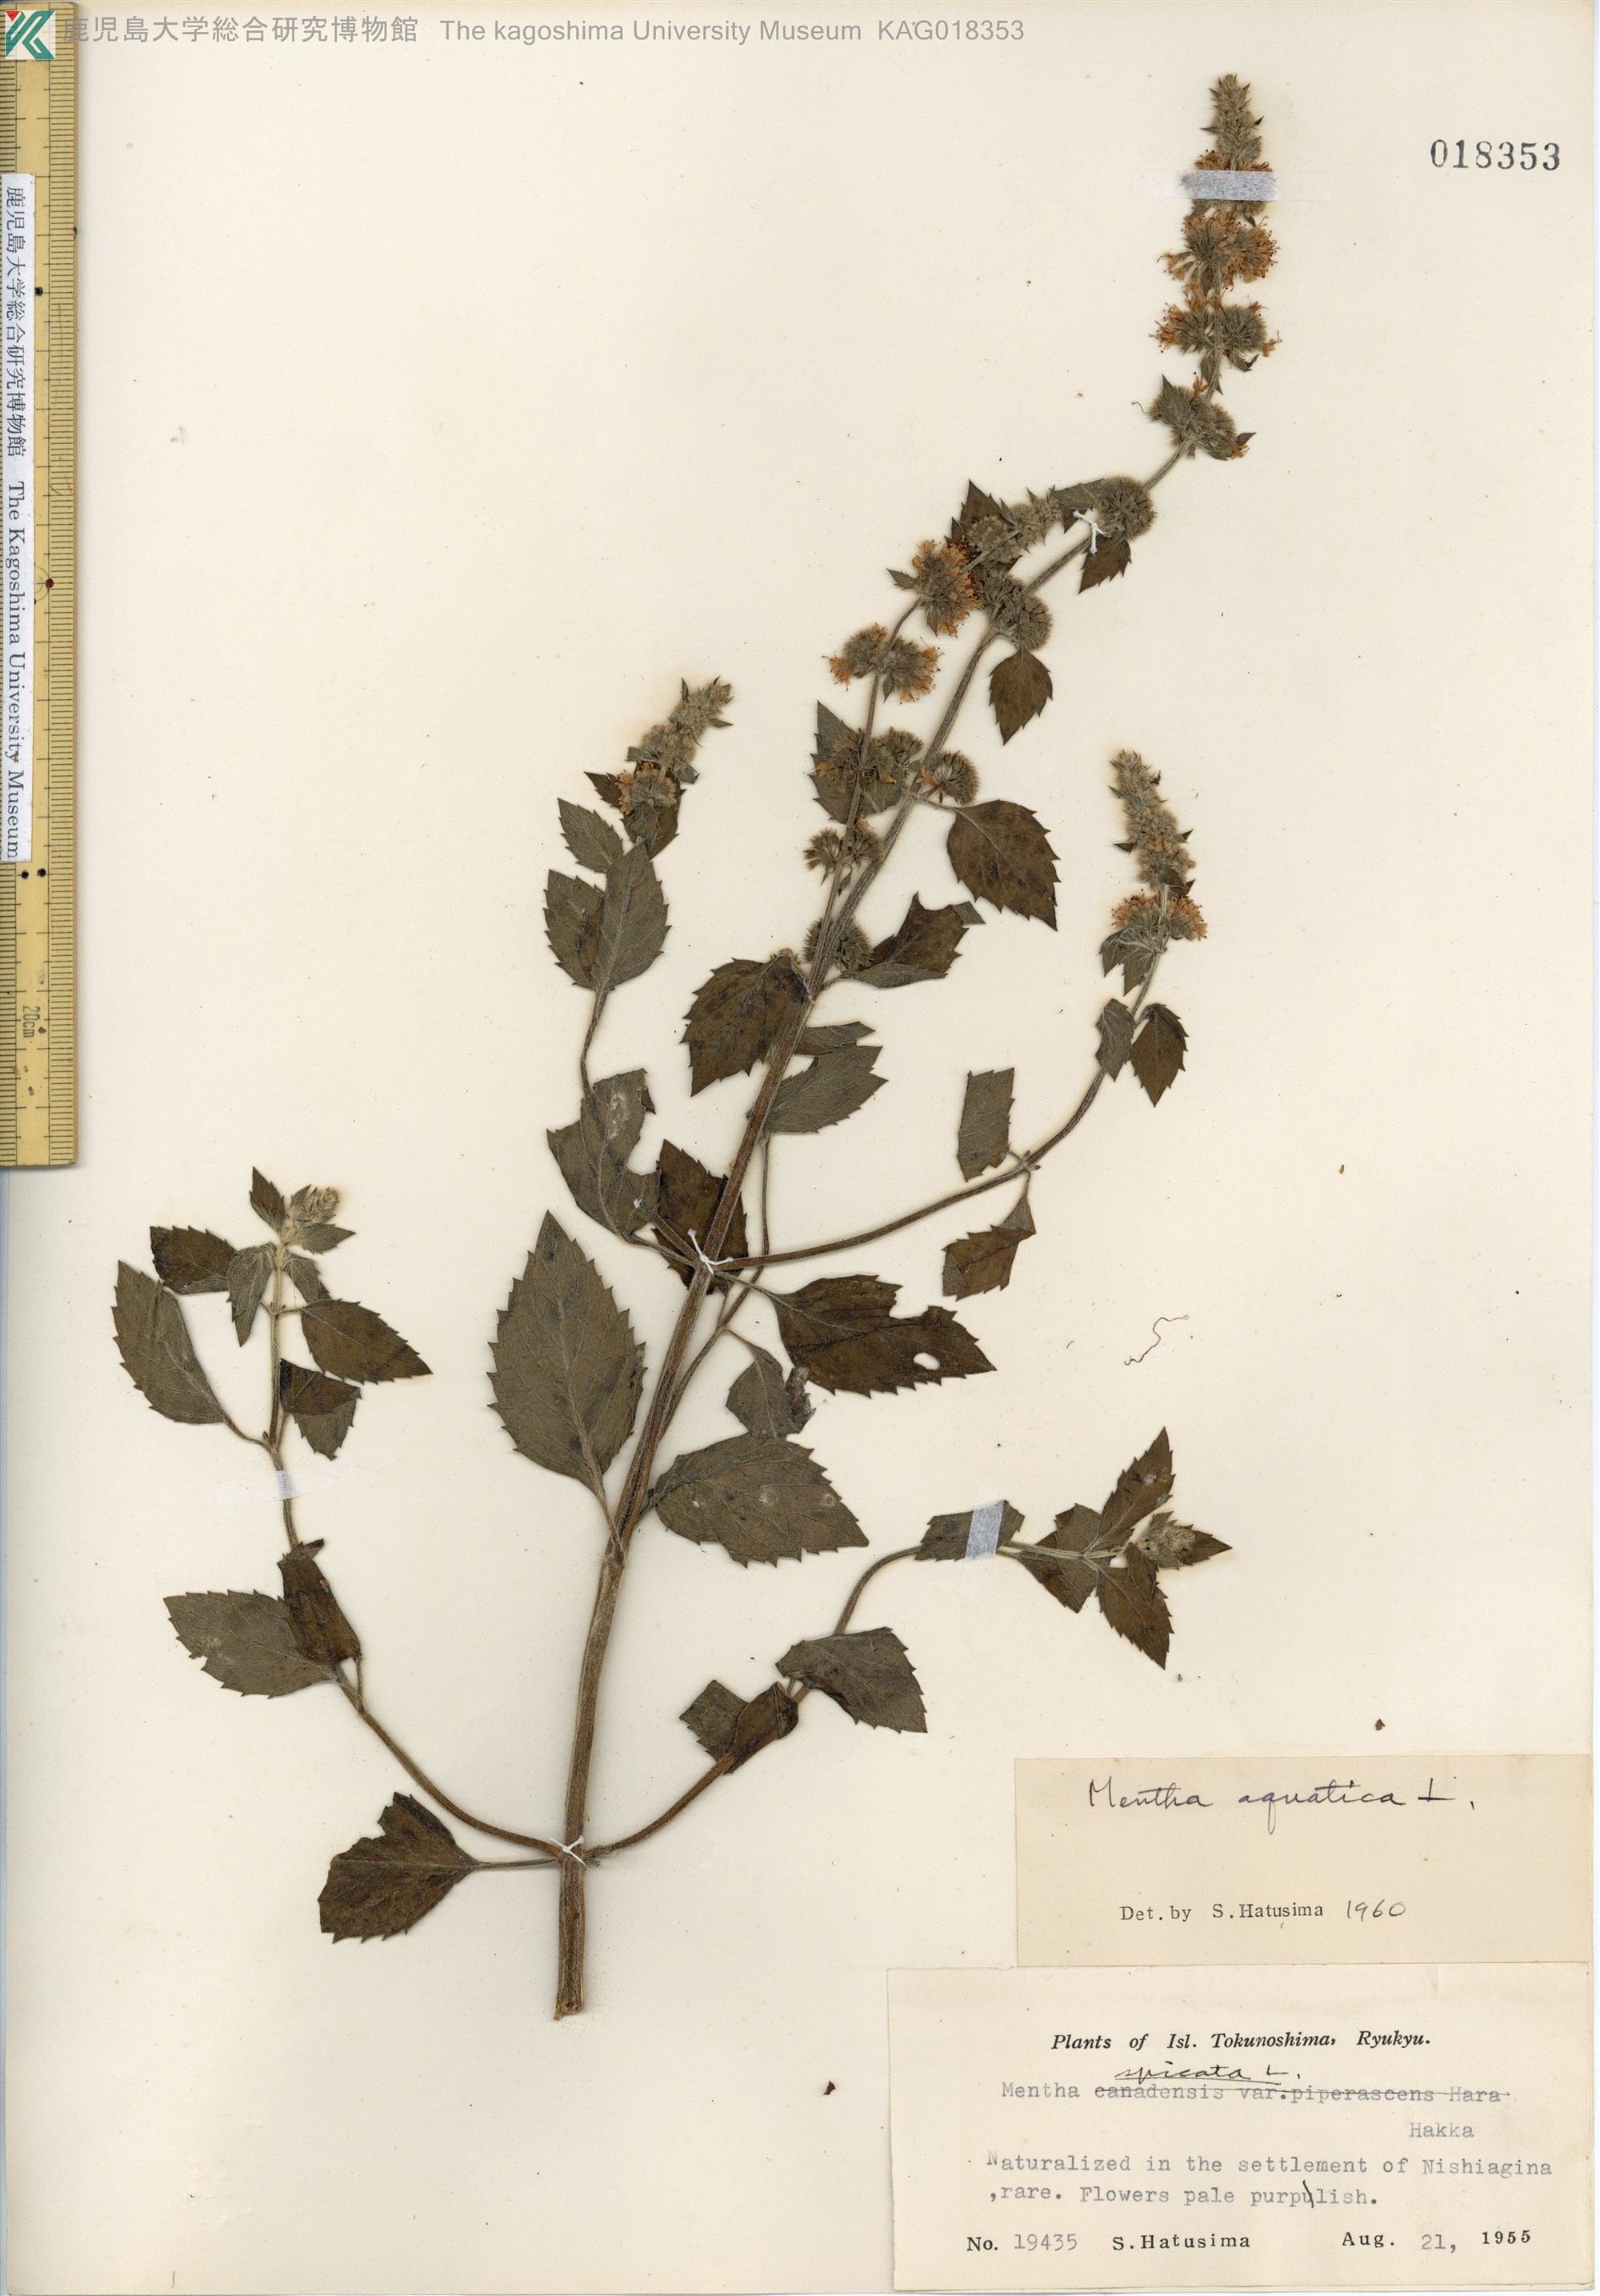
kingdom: Plantae
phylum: Tracheophyta
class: Magnoliopsida
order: Lamiales
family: Lamiaceae
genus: Mentha
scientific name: Mentha aquatica
